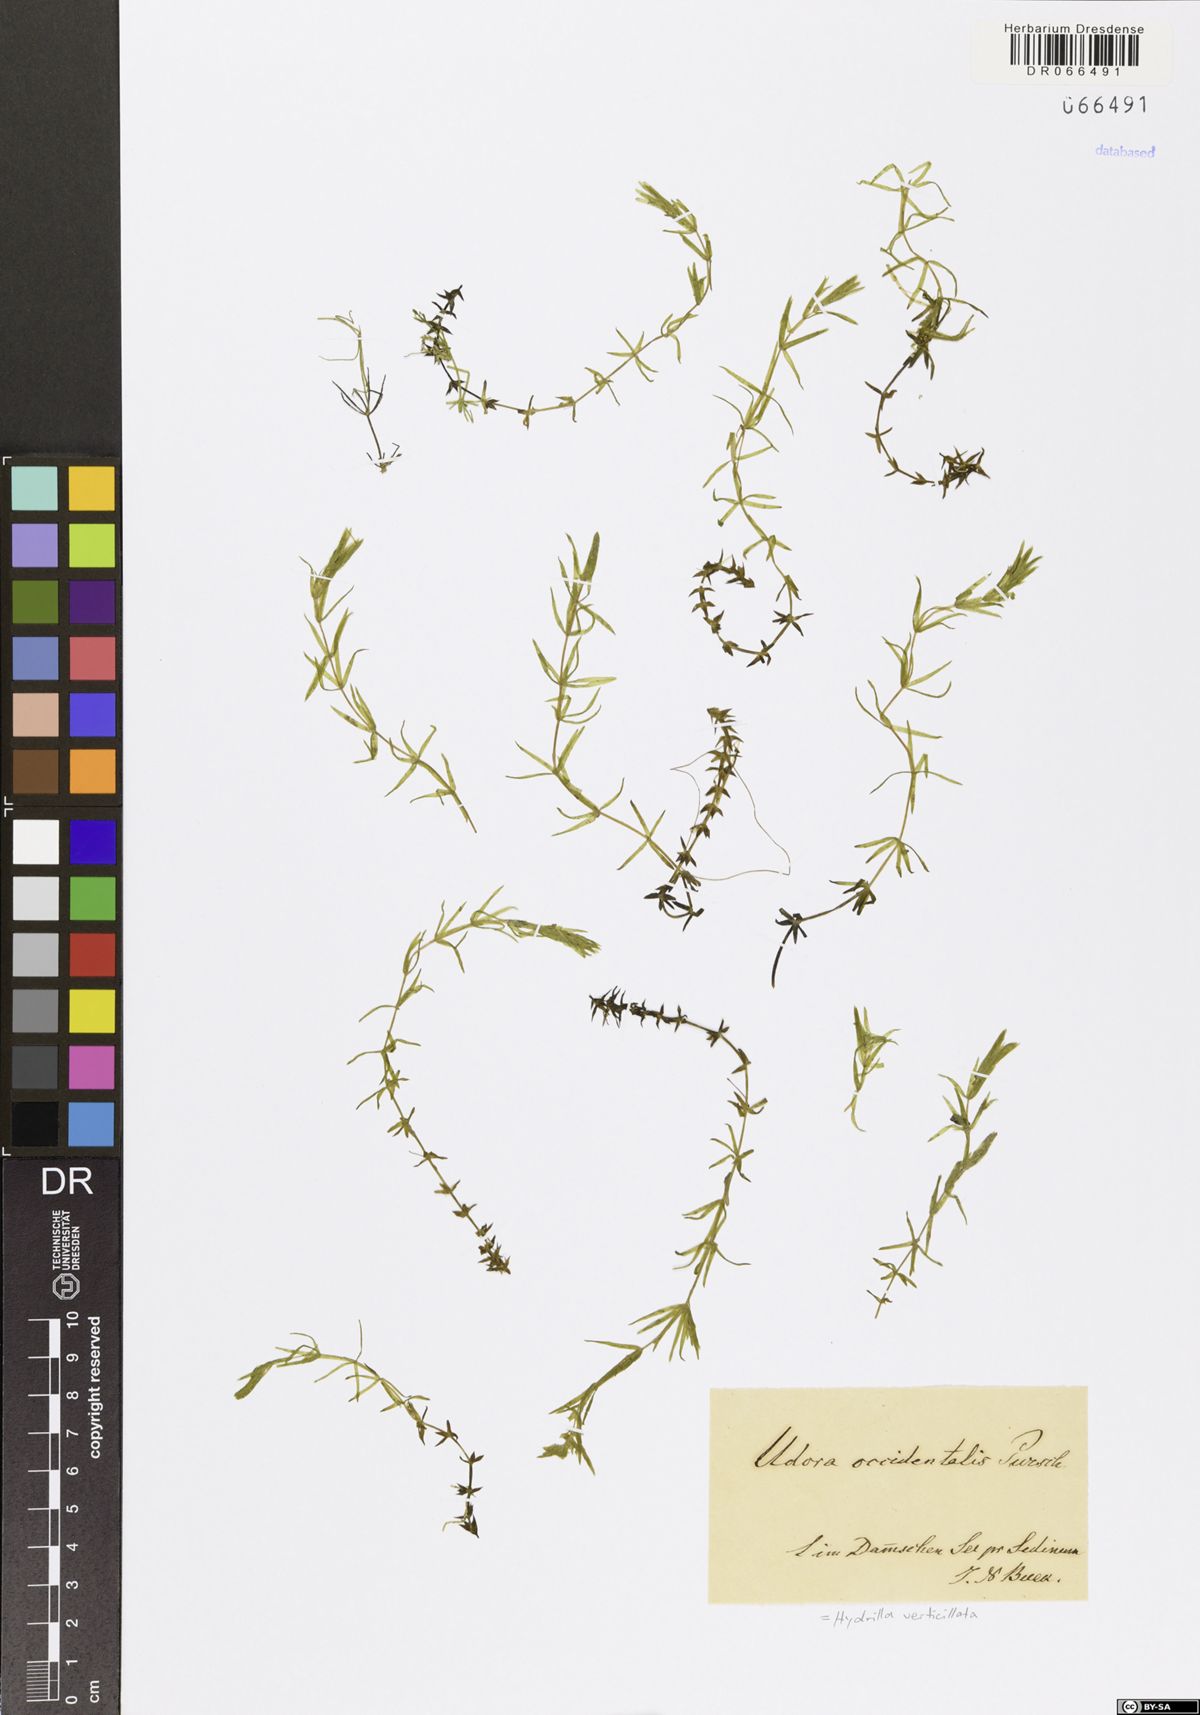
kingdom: Plantae
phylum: Tracheophyta
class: Liliopsida
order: Alismatales
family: Hydrocharitaceae
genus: Hydrilla
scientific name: Hydrilla verticillata
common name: Florida-elodea
